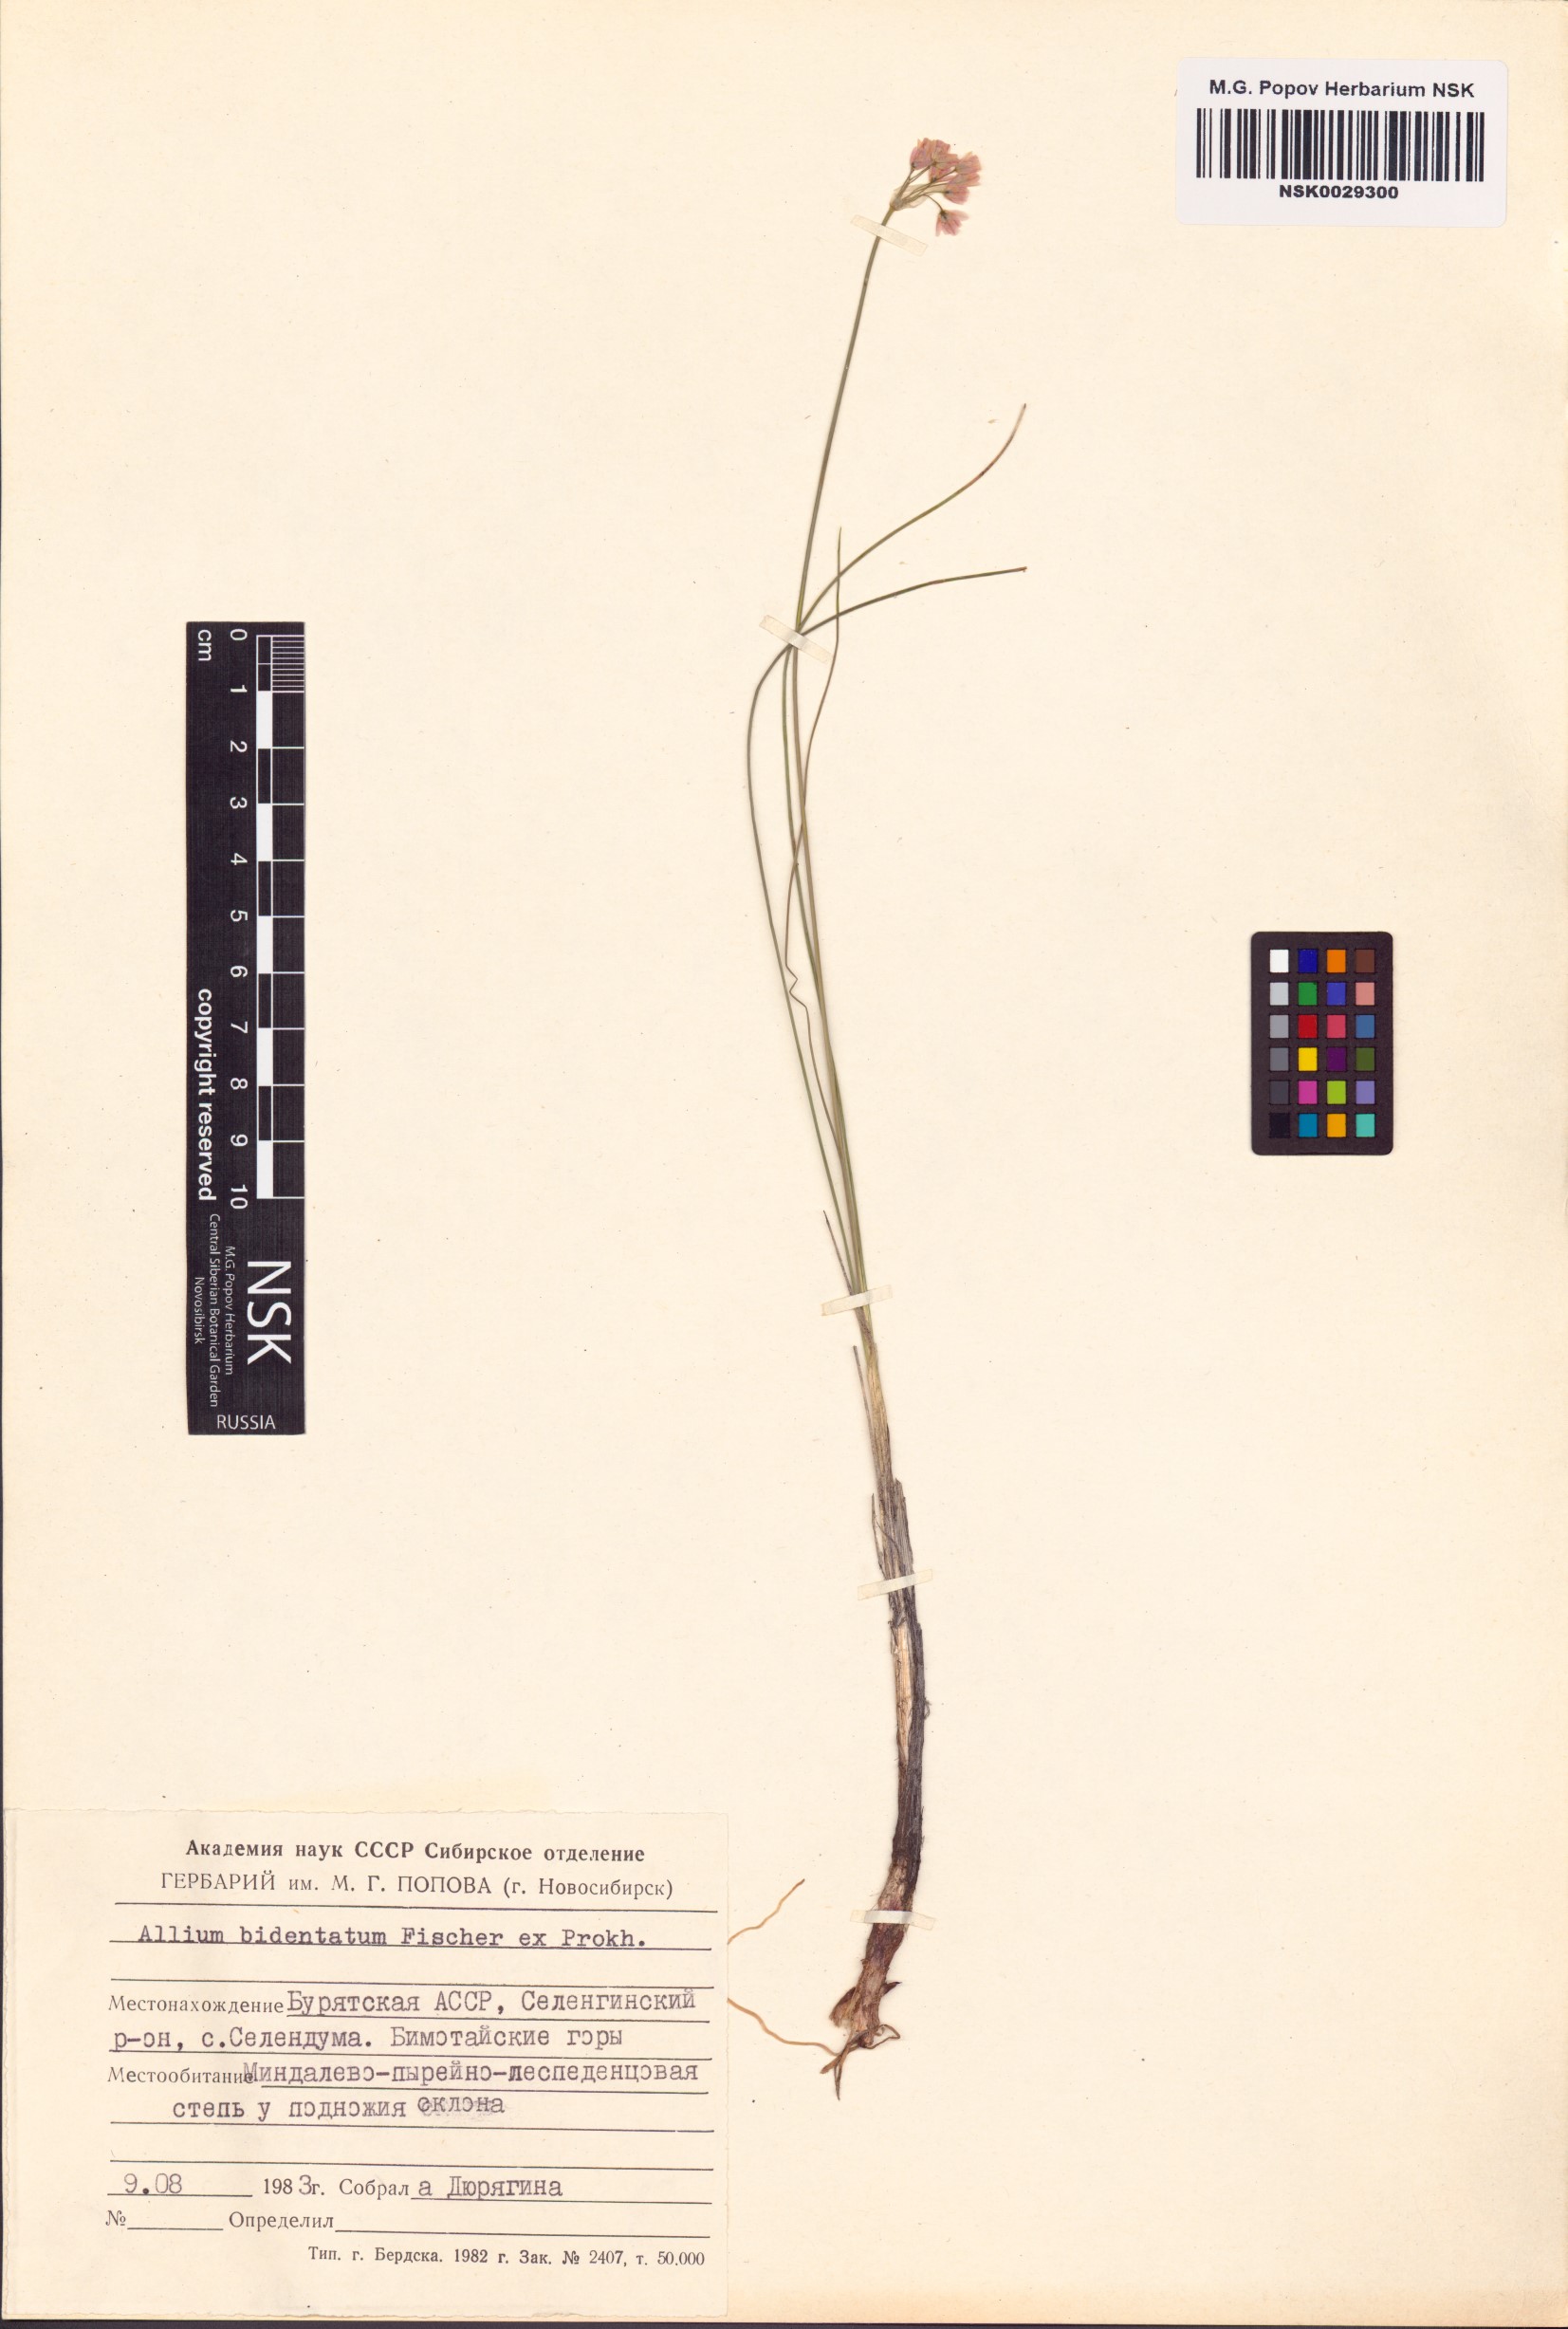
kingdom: Plantae
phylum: Tracheophyta
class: Liliopsida
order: Asparagales
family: Amaryllidaceae
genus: Allium
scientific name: Allium bidentatum
